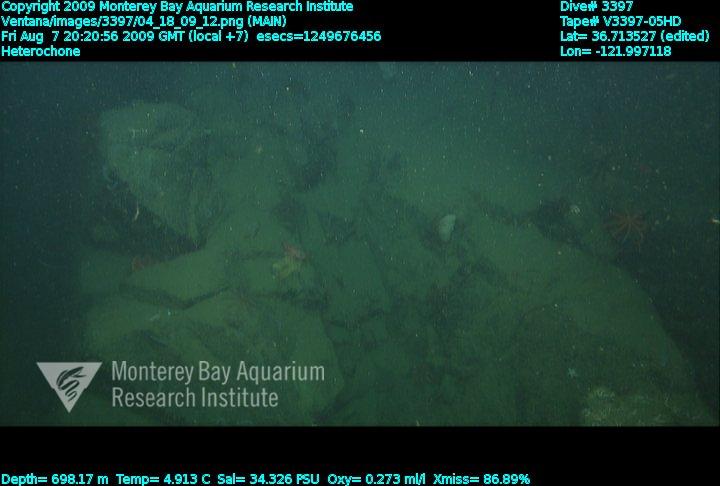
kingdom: Animalia
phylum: Porifera
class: Hexactinellida
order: Sceptrulophora
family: Aphrocallistidae
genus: Heterochone
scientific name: Heterochone
